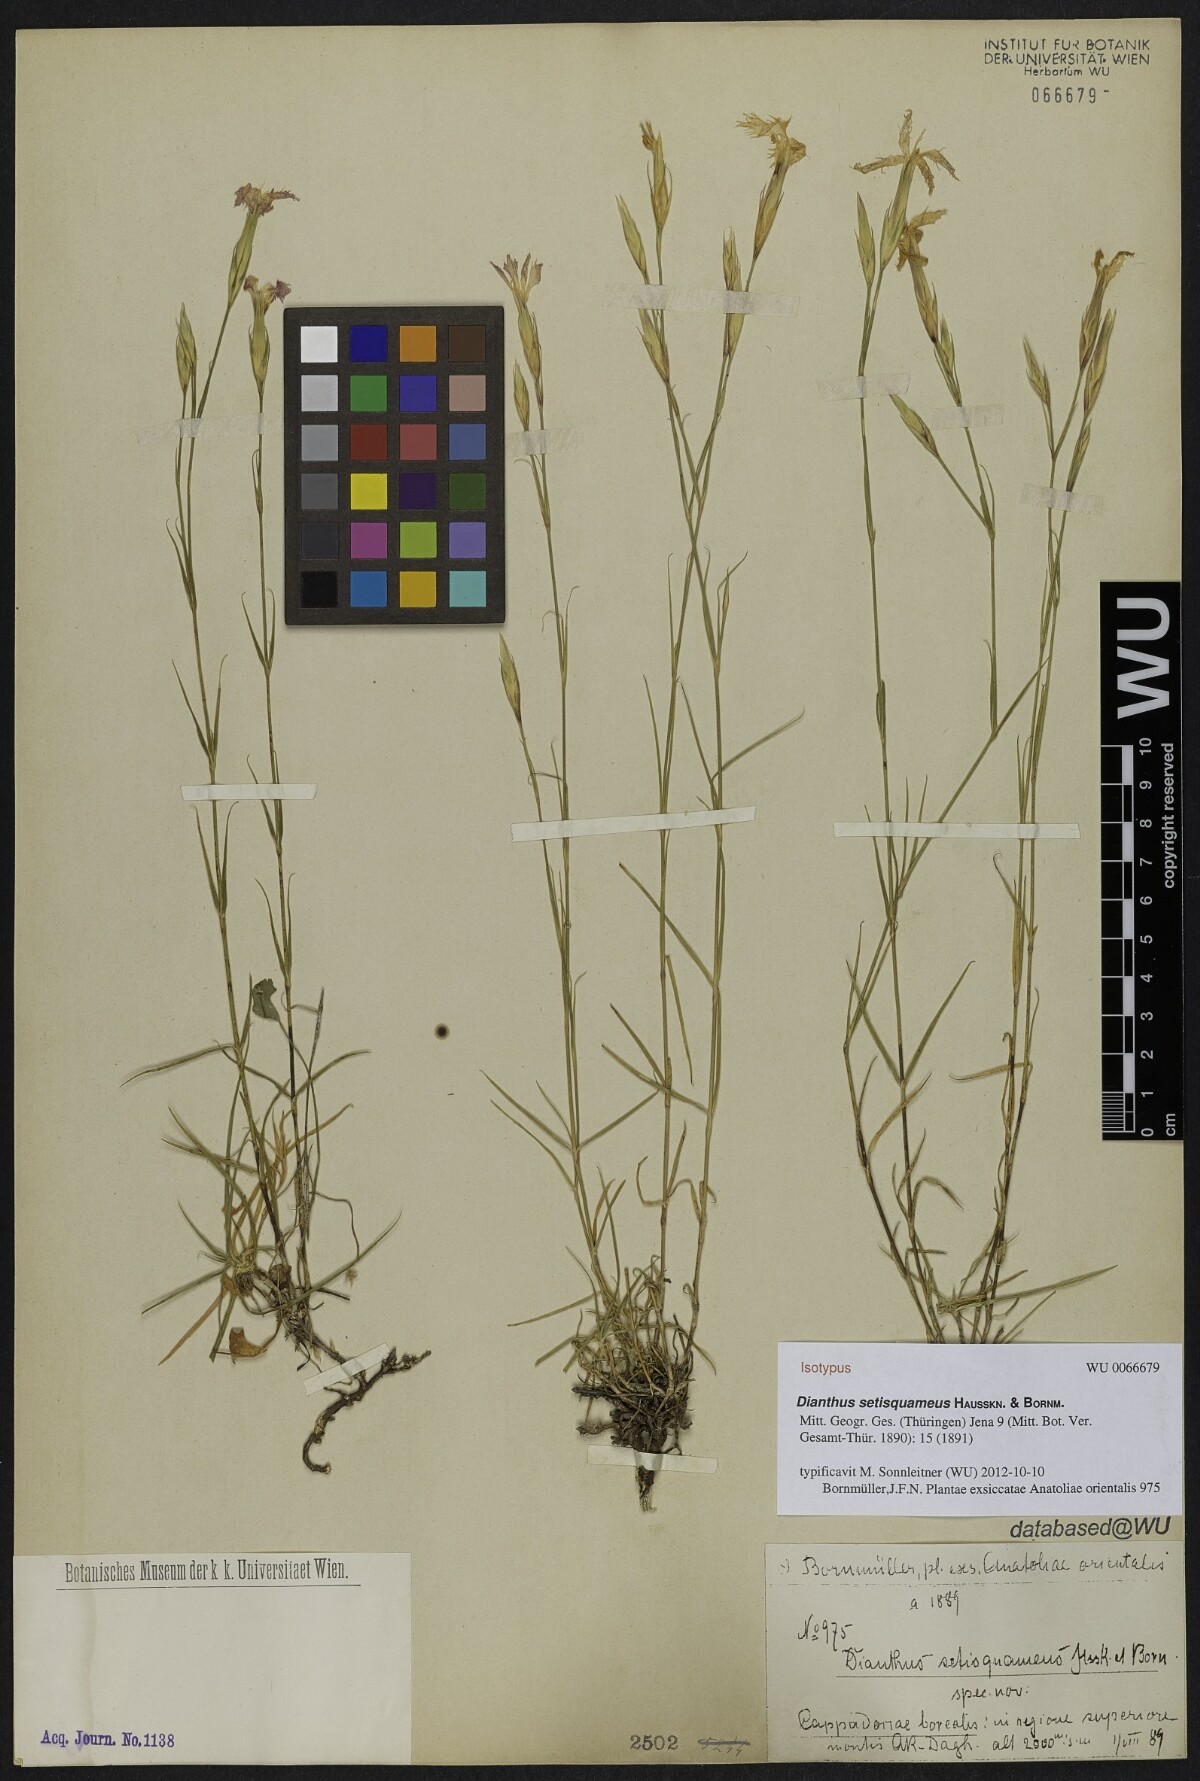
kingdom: Plantae
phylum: Tracheophyta
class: Magnoliopsida
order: Caryophyllales
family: Caryophyllaceae
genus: Dianthus
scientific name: Dianthus setisquameus
